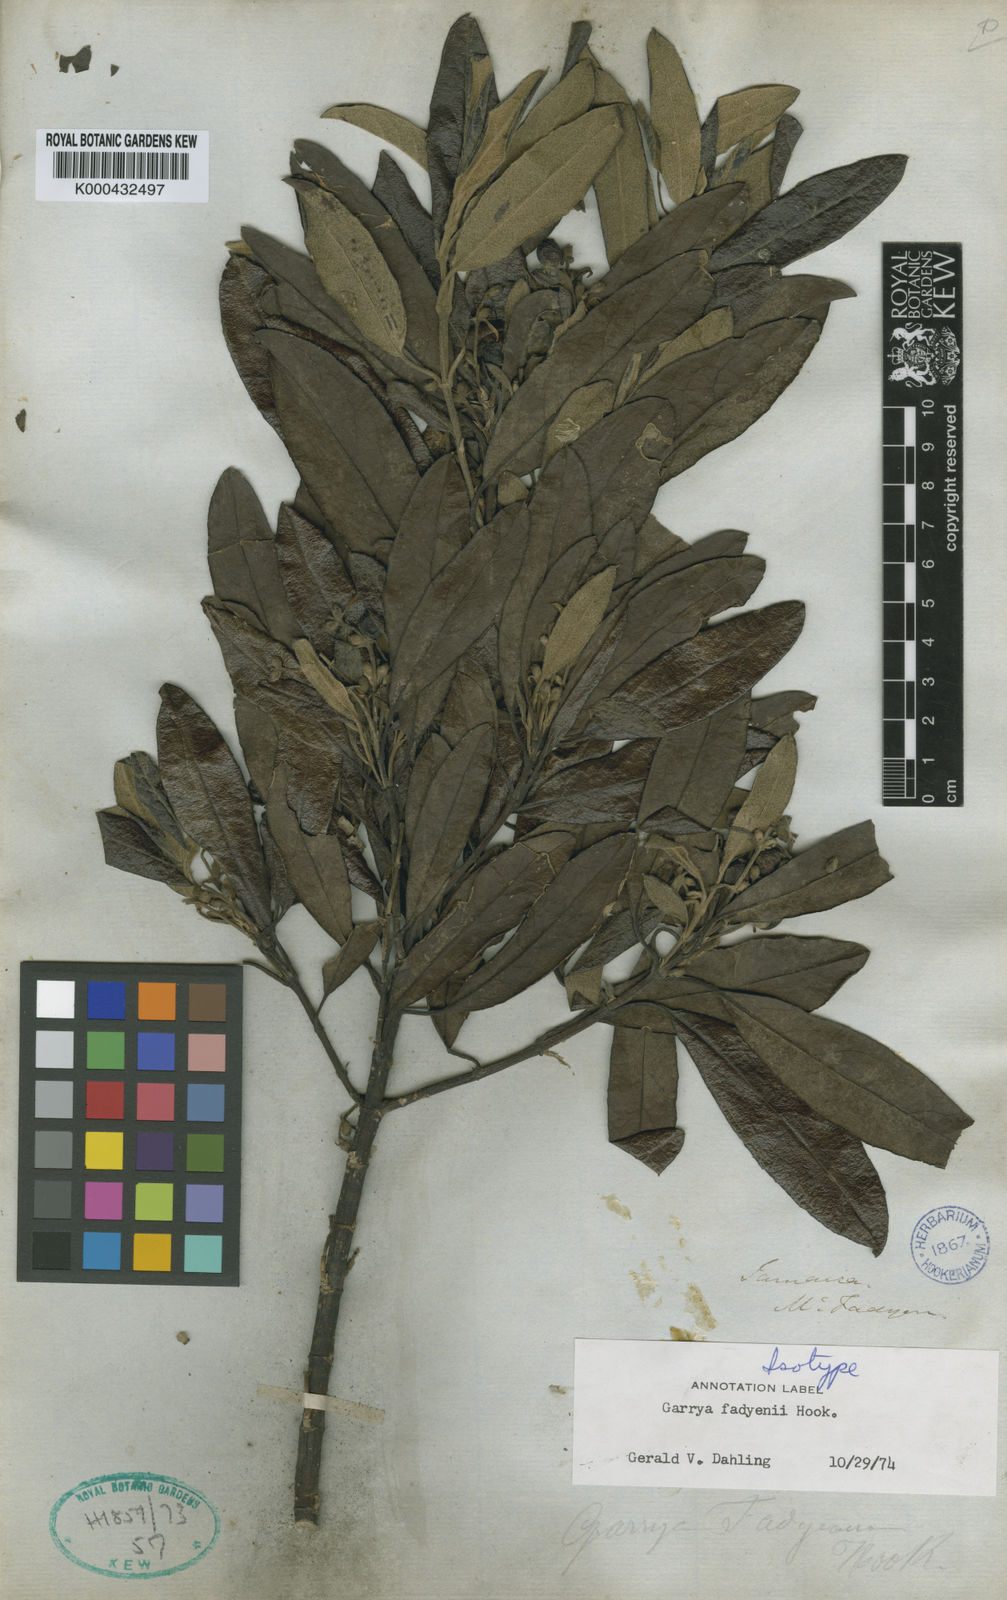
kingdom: Plantae
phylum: Tracheophyta
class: Magnoliopsida
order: Garryales
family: Garryaceae
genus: Garrya
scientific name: Garrya fadyenii
